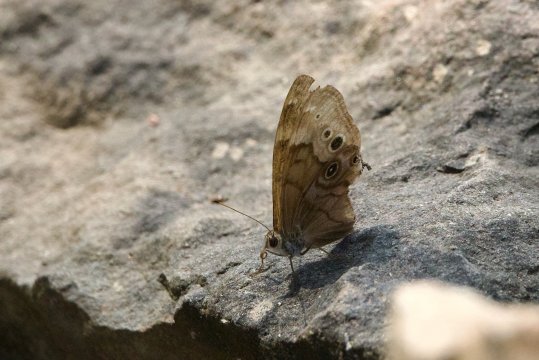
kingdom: Animalia
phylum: Arthropoda
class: Insecta
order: Lepidoptera
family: Nymphalidae
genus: Lethe
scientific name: Lethe anthedon
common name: Northern Pearly-Eye
